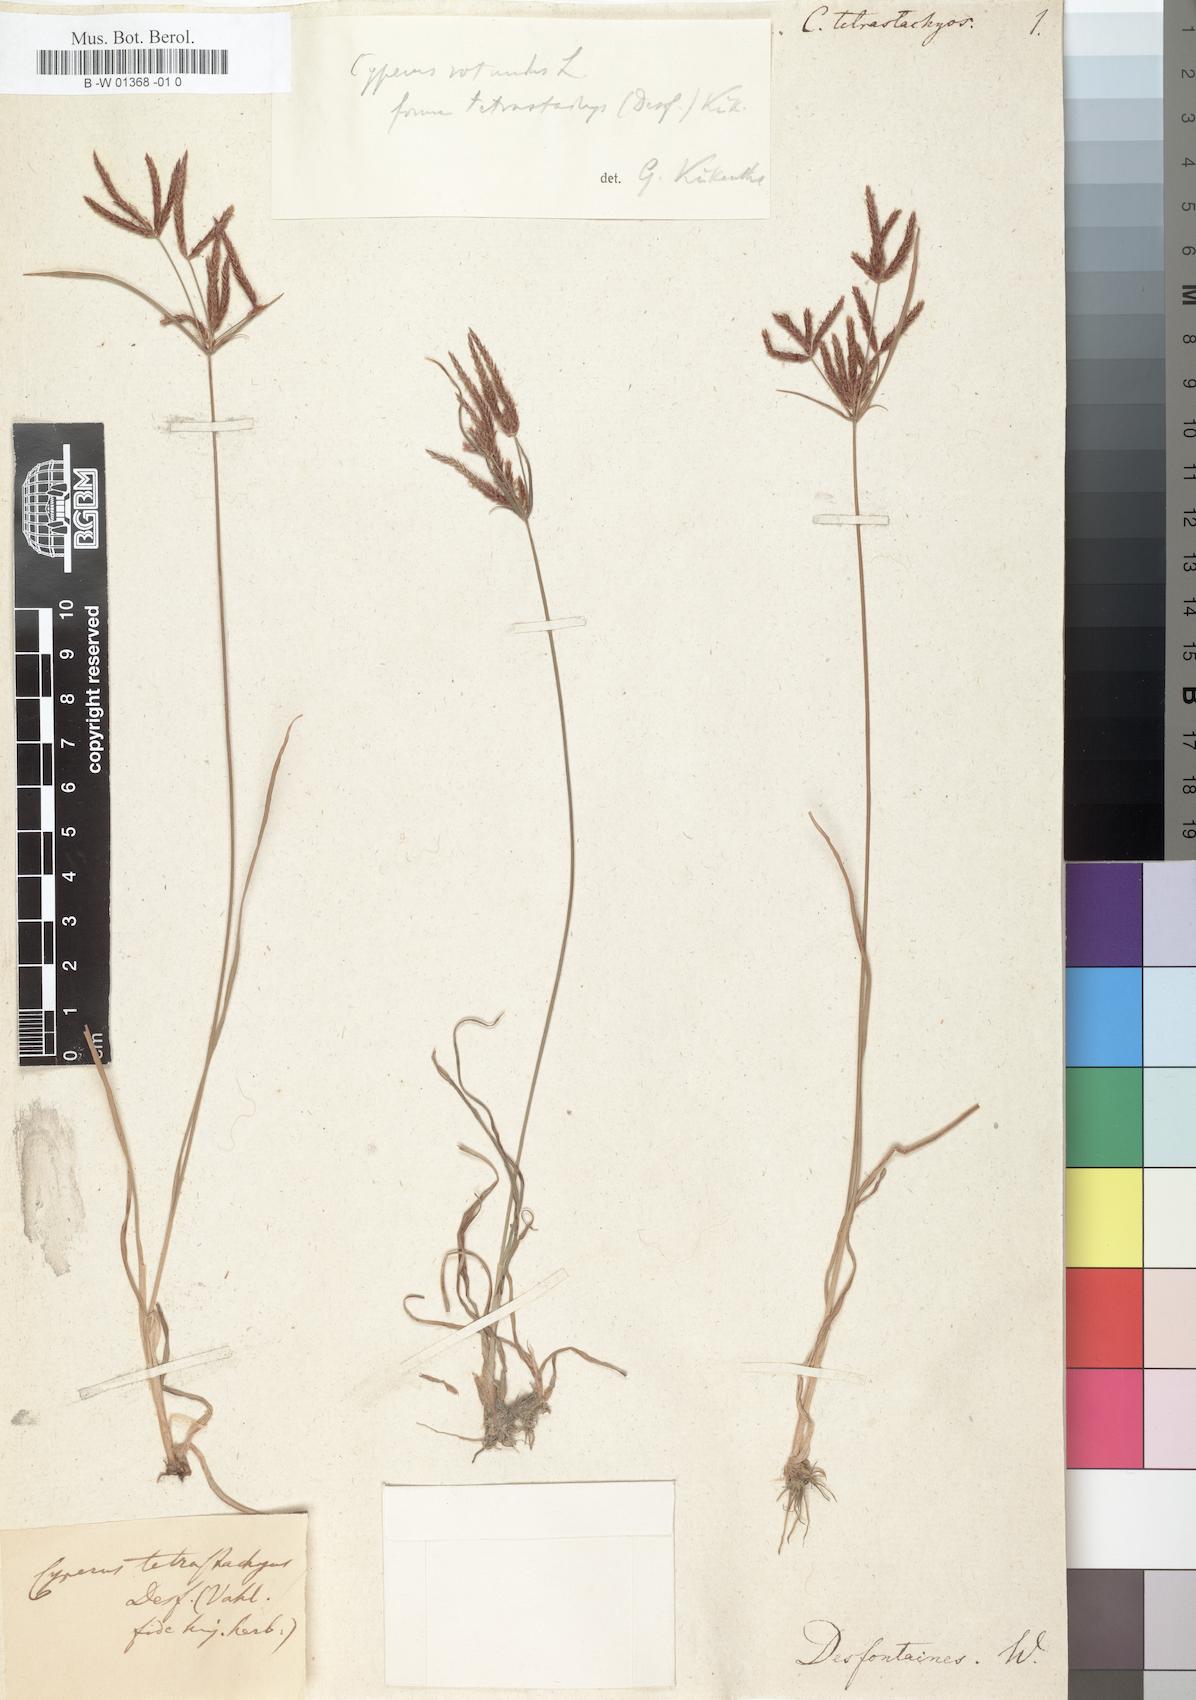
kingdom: Plantae
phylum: Tracheophyta
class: Liliopsida
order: Poales
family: Cyperaceae
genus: Cyperus
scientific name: Cyperus rotundus
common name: Nutgrass
